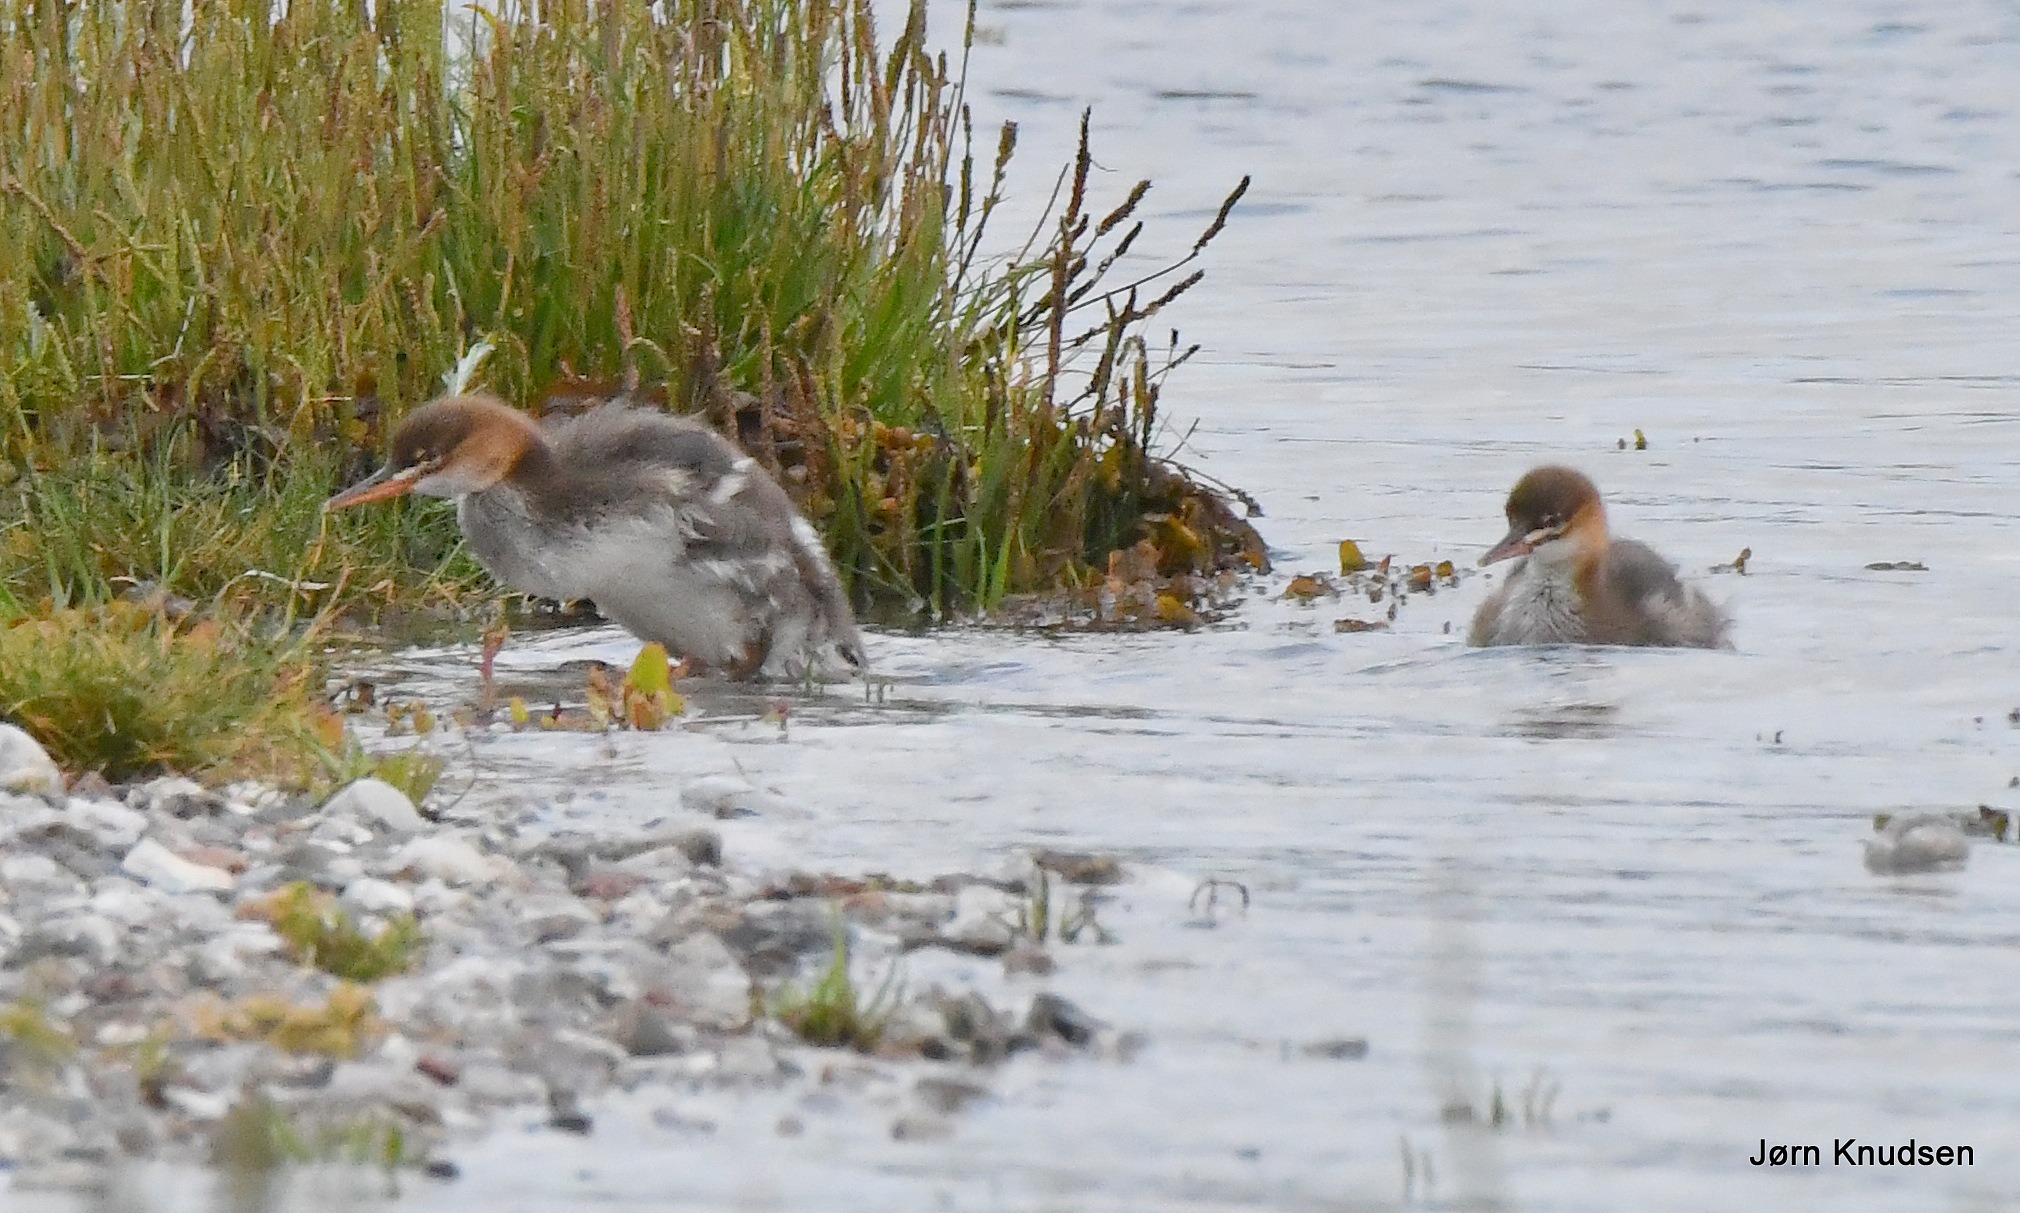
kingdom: Animalia
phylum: Chordata
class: Aves
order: Anseriformes
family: Anatidae
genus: Mergus
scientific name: Mergus serrator
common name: Toppet skallesluger
